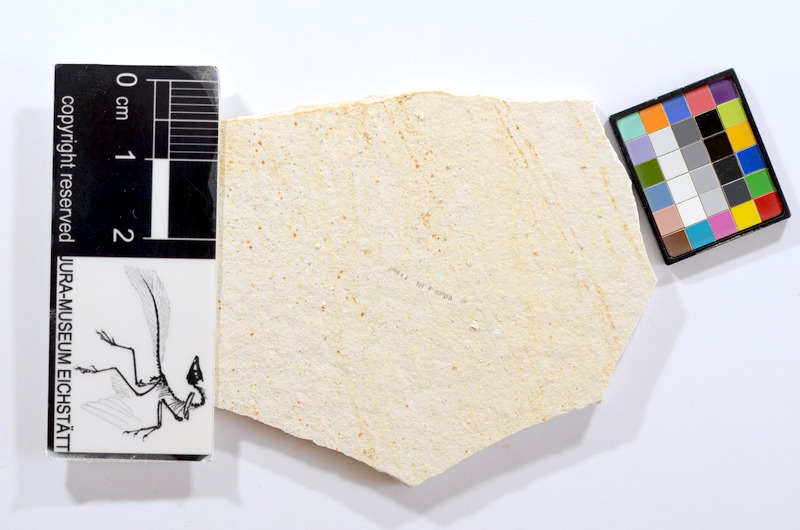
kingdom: Animalia
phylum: Chordata
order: Salmoniformes
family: Orthogonikleithridae
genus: Orthogonikleithrus
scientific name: Orthogonikleithrus hoelli
